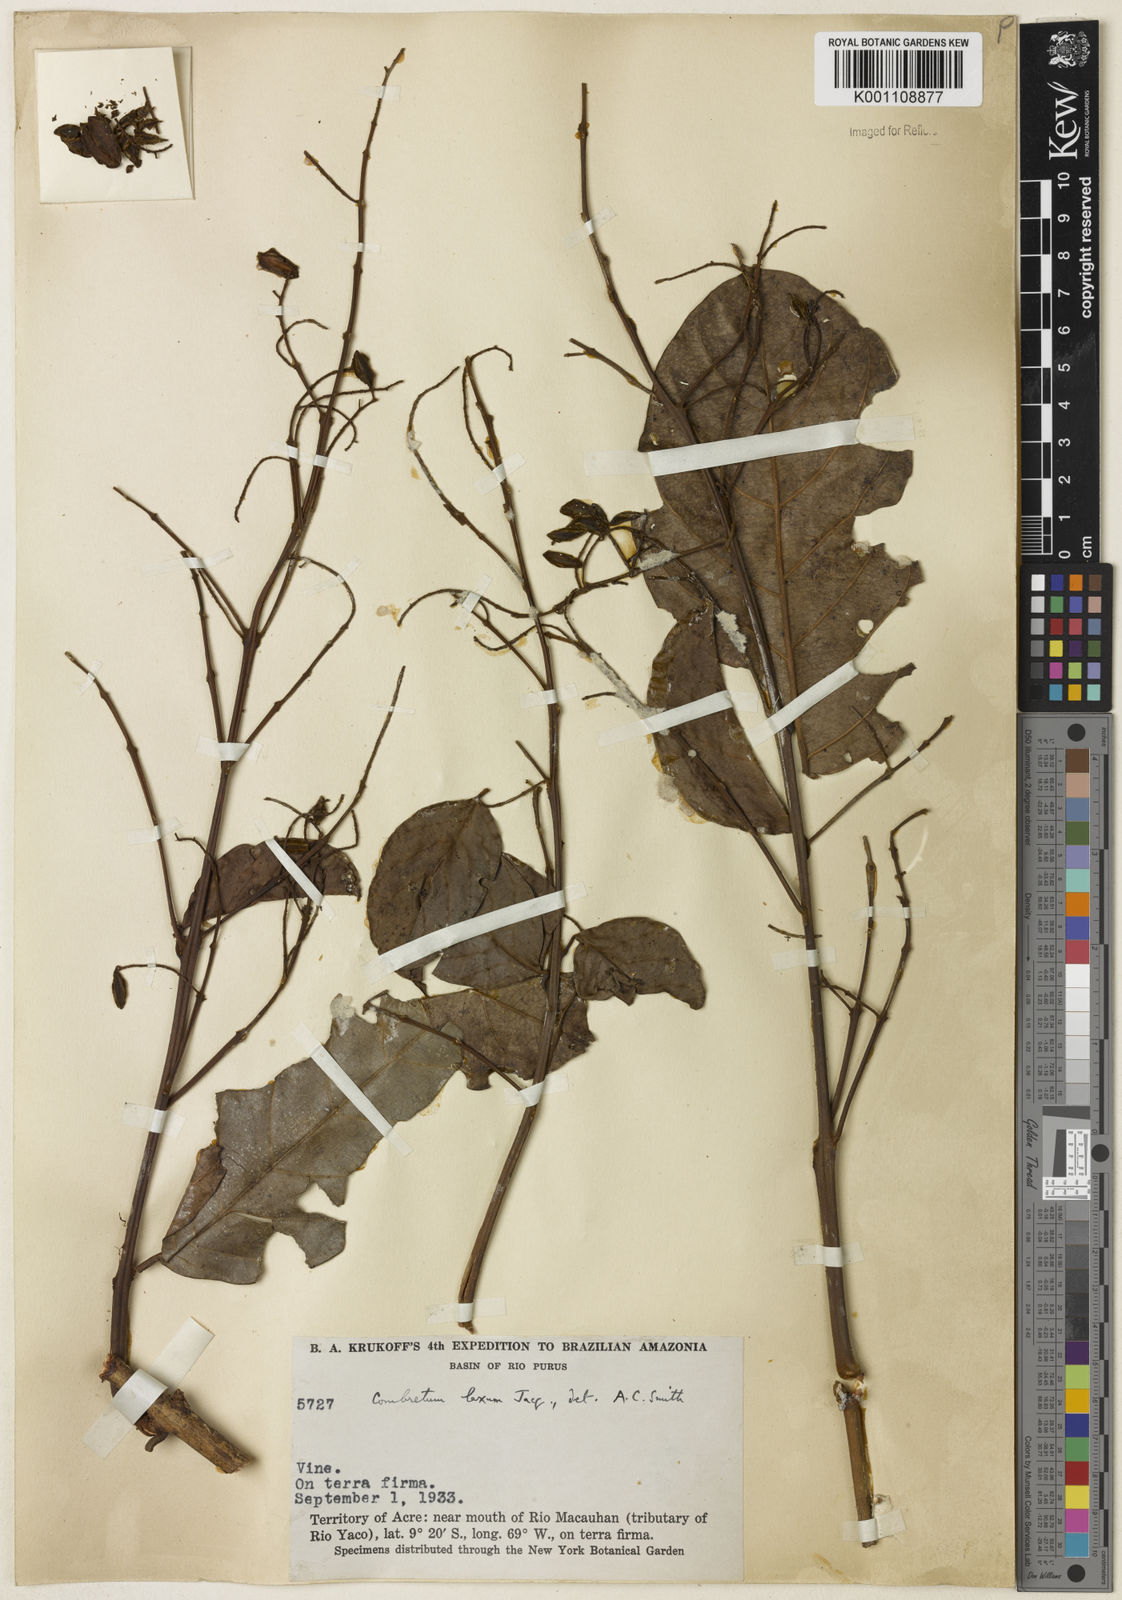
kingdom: Plantae
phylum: Tracheophyta
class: Magnoliopsida
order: Myrtales
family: Combretaceae
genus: Combretum
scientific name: Combretum laxum
